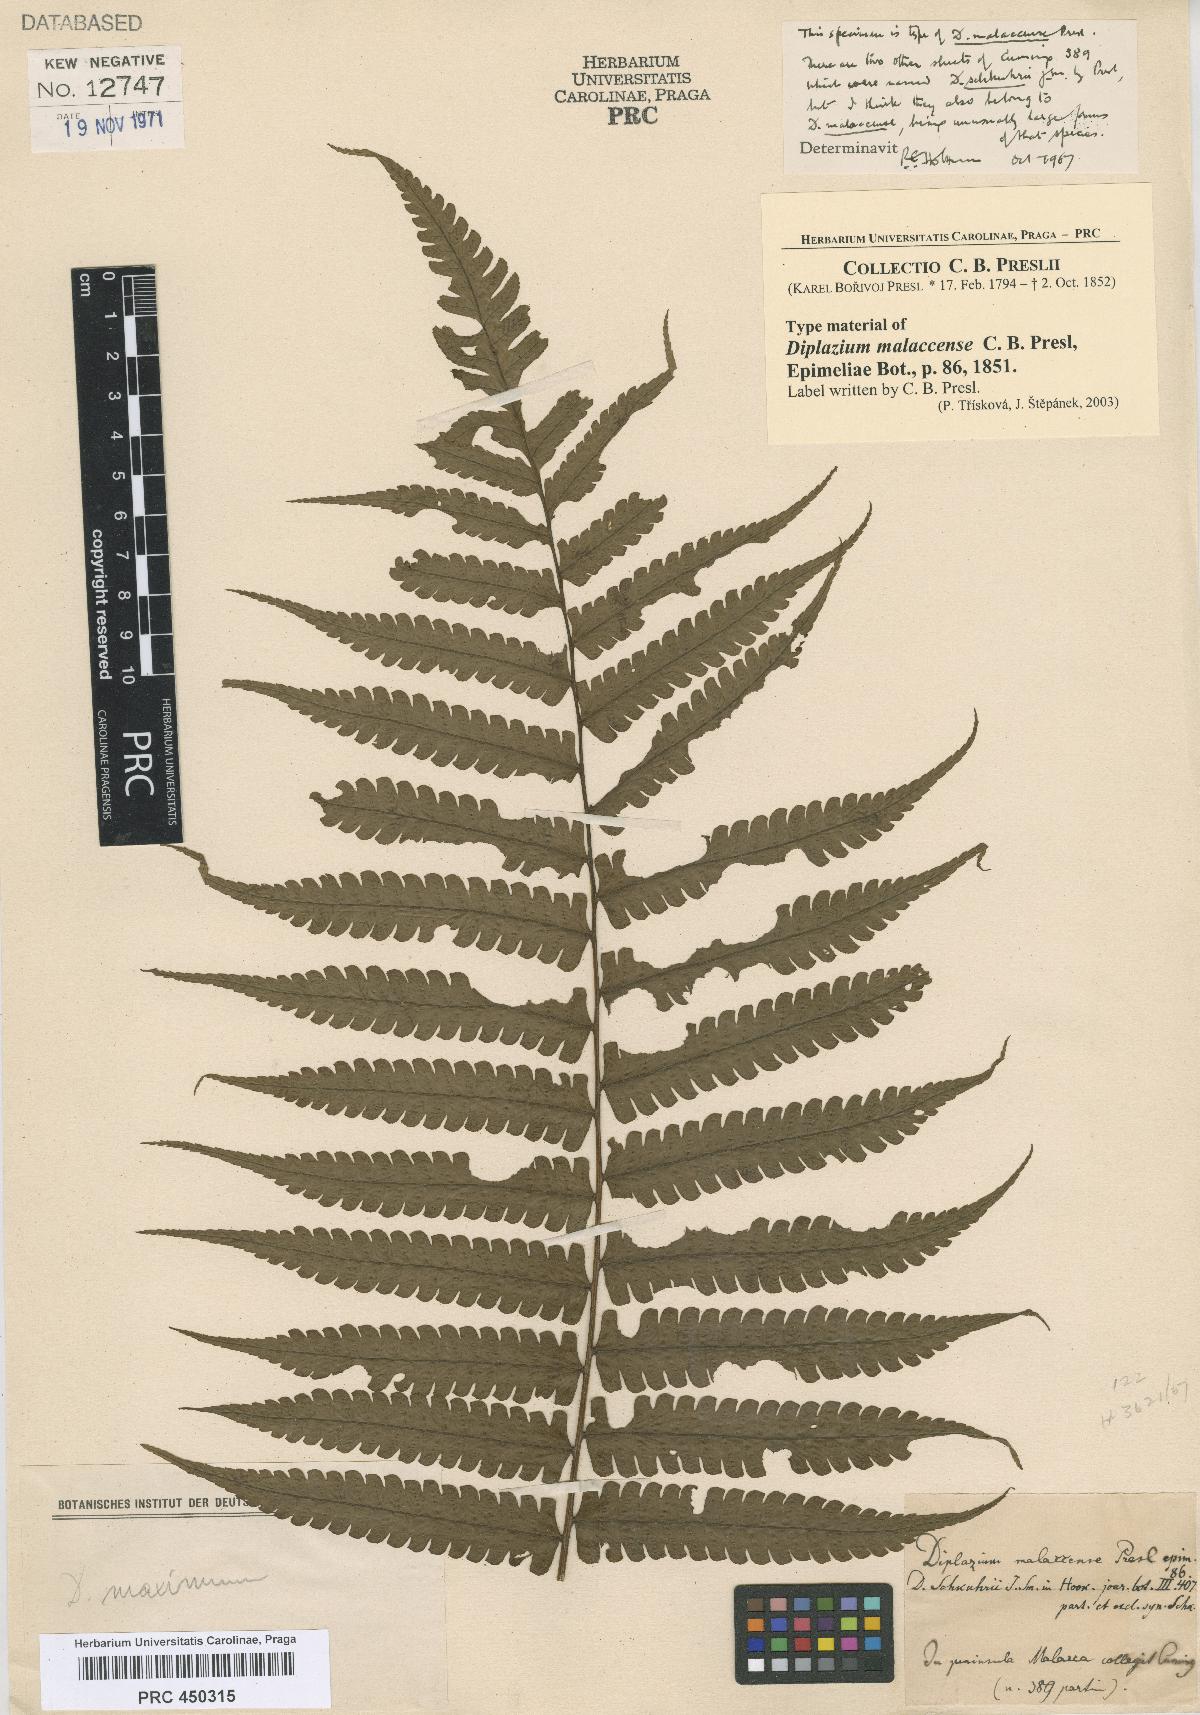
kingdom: Plantae
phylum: Tracheophyta
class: Polypodiopsida
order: Polypodiales
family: Athyriaceae
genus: Diplazium
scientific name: Diplazium holttumii
